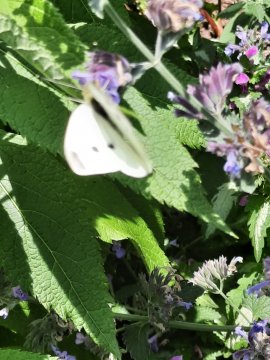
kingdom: Animalia
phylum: Arthropoda
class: Insecta
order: Lepidoptera
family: Pieridae
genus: Pieris
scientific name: Pieris rapae
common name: Cabbage White
